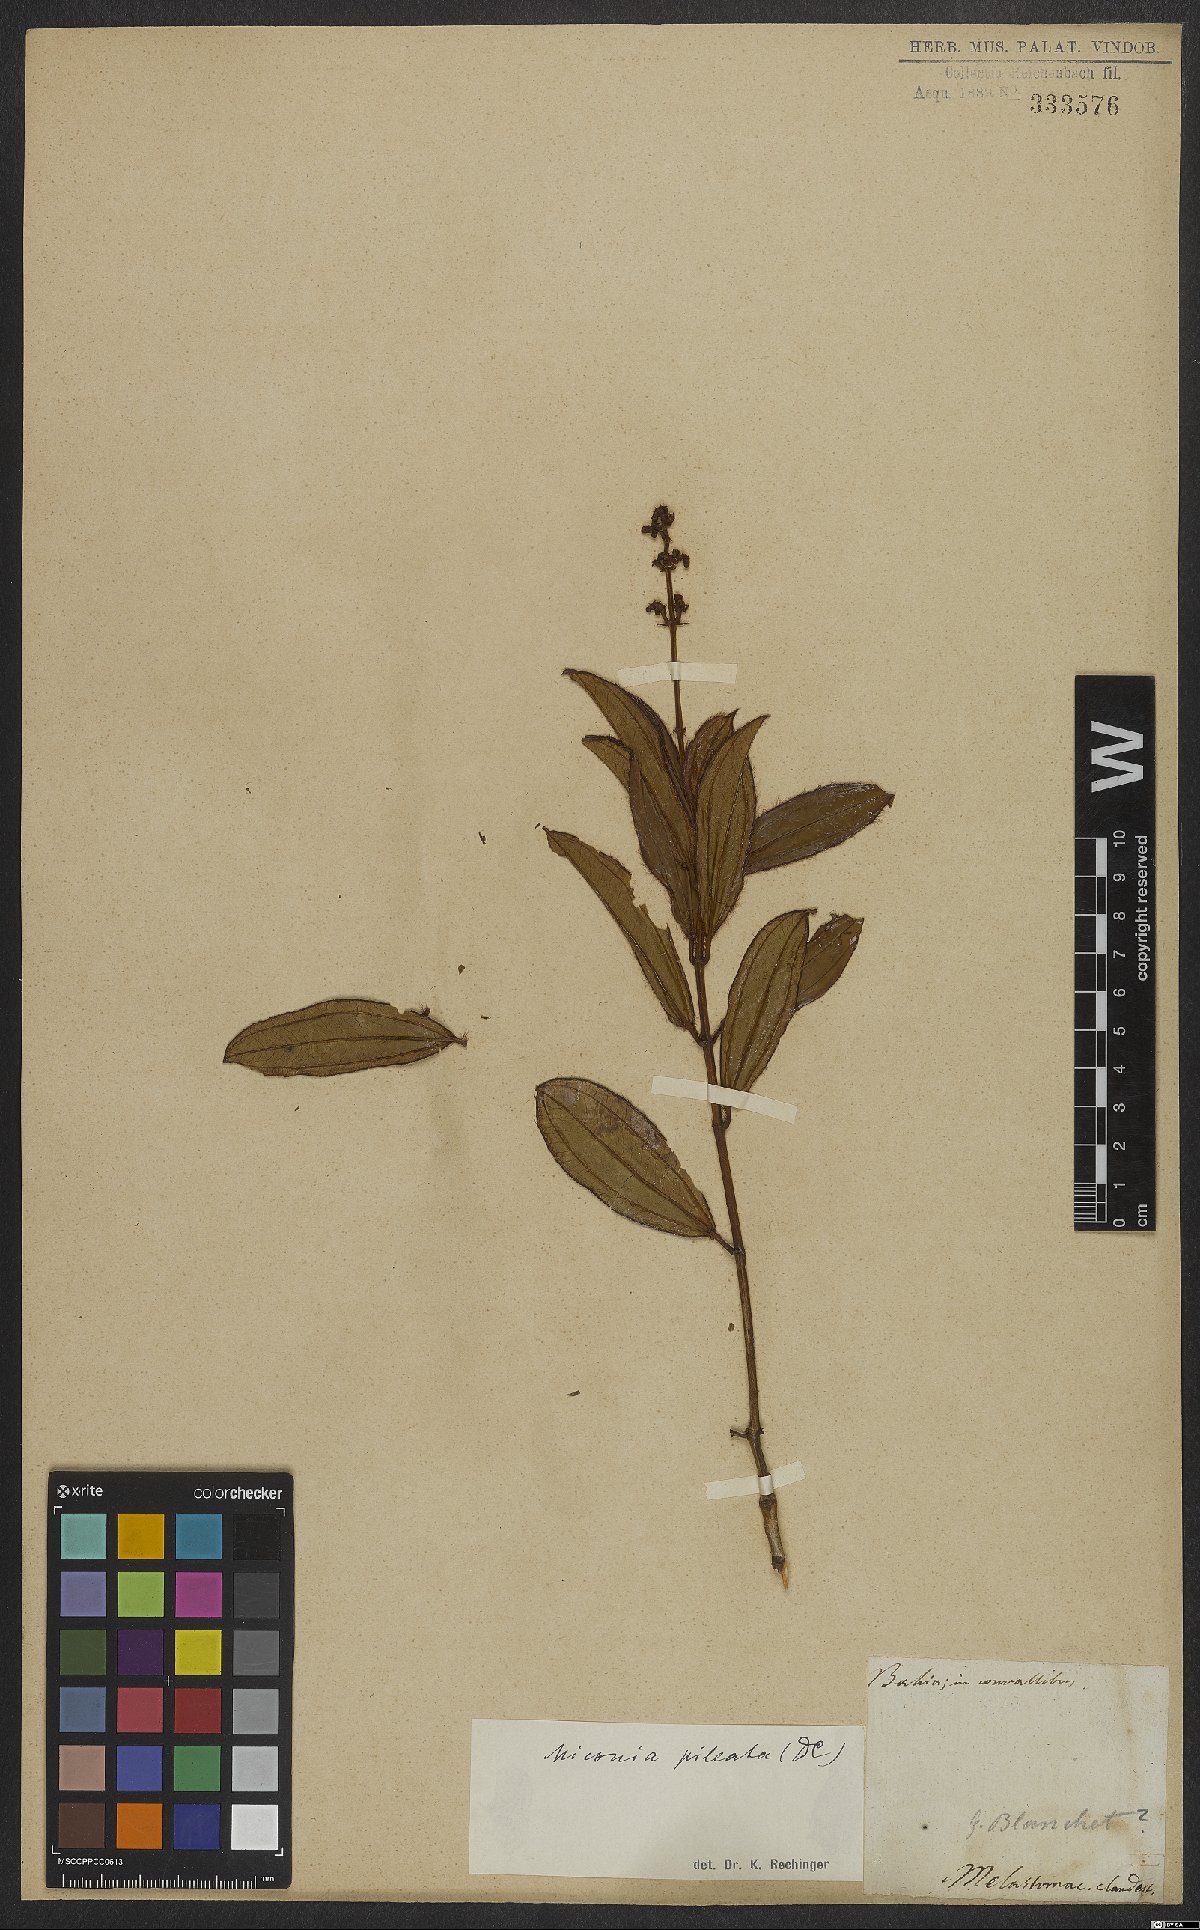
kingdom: Plantae
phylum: Tracheophyta
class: Magnoliopsida
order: Myrtales
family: Melastomataceae
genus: Miconia
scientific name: Miconia pileata
